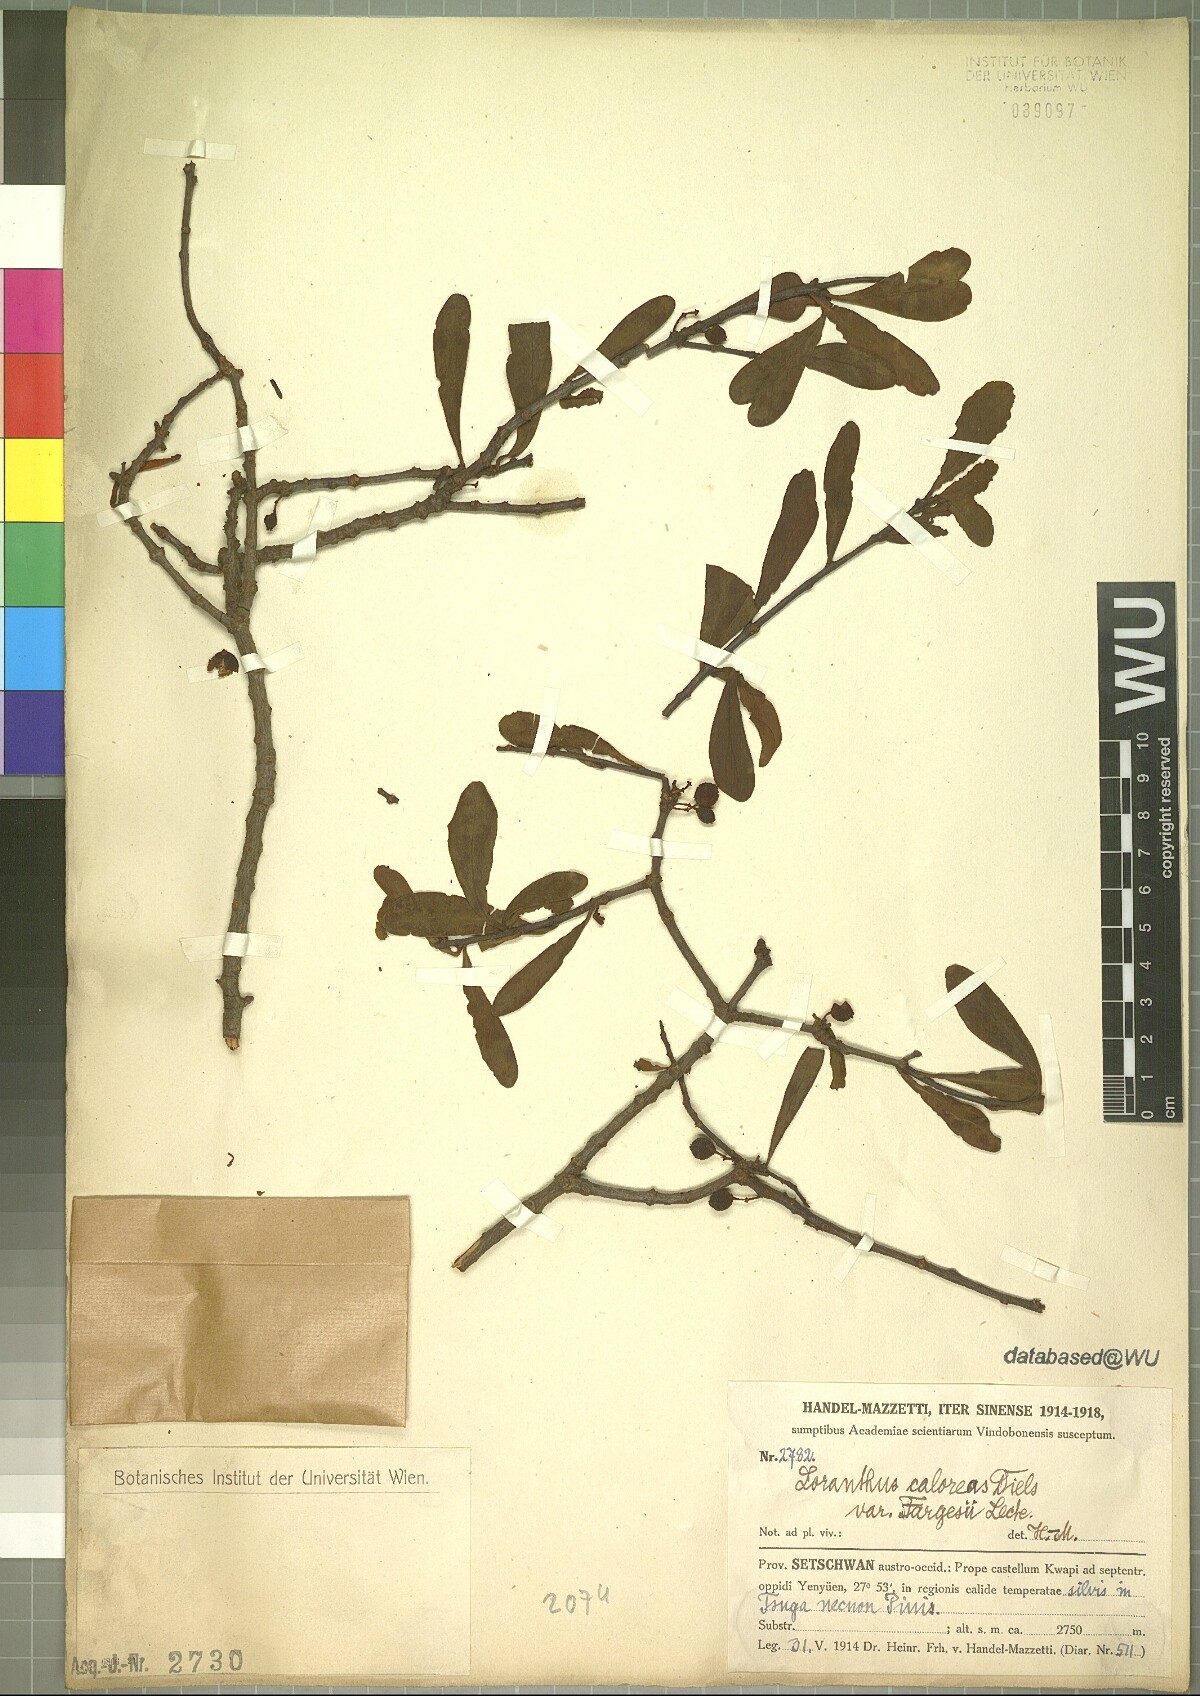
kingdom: Plantae
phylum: Tracheophyta
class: Magnoliopsida
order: Santalales
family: Loranthaceae
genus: Taxillus
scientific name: Taxillus caloreas
